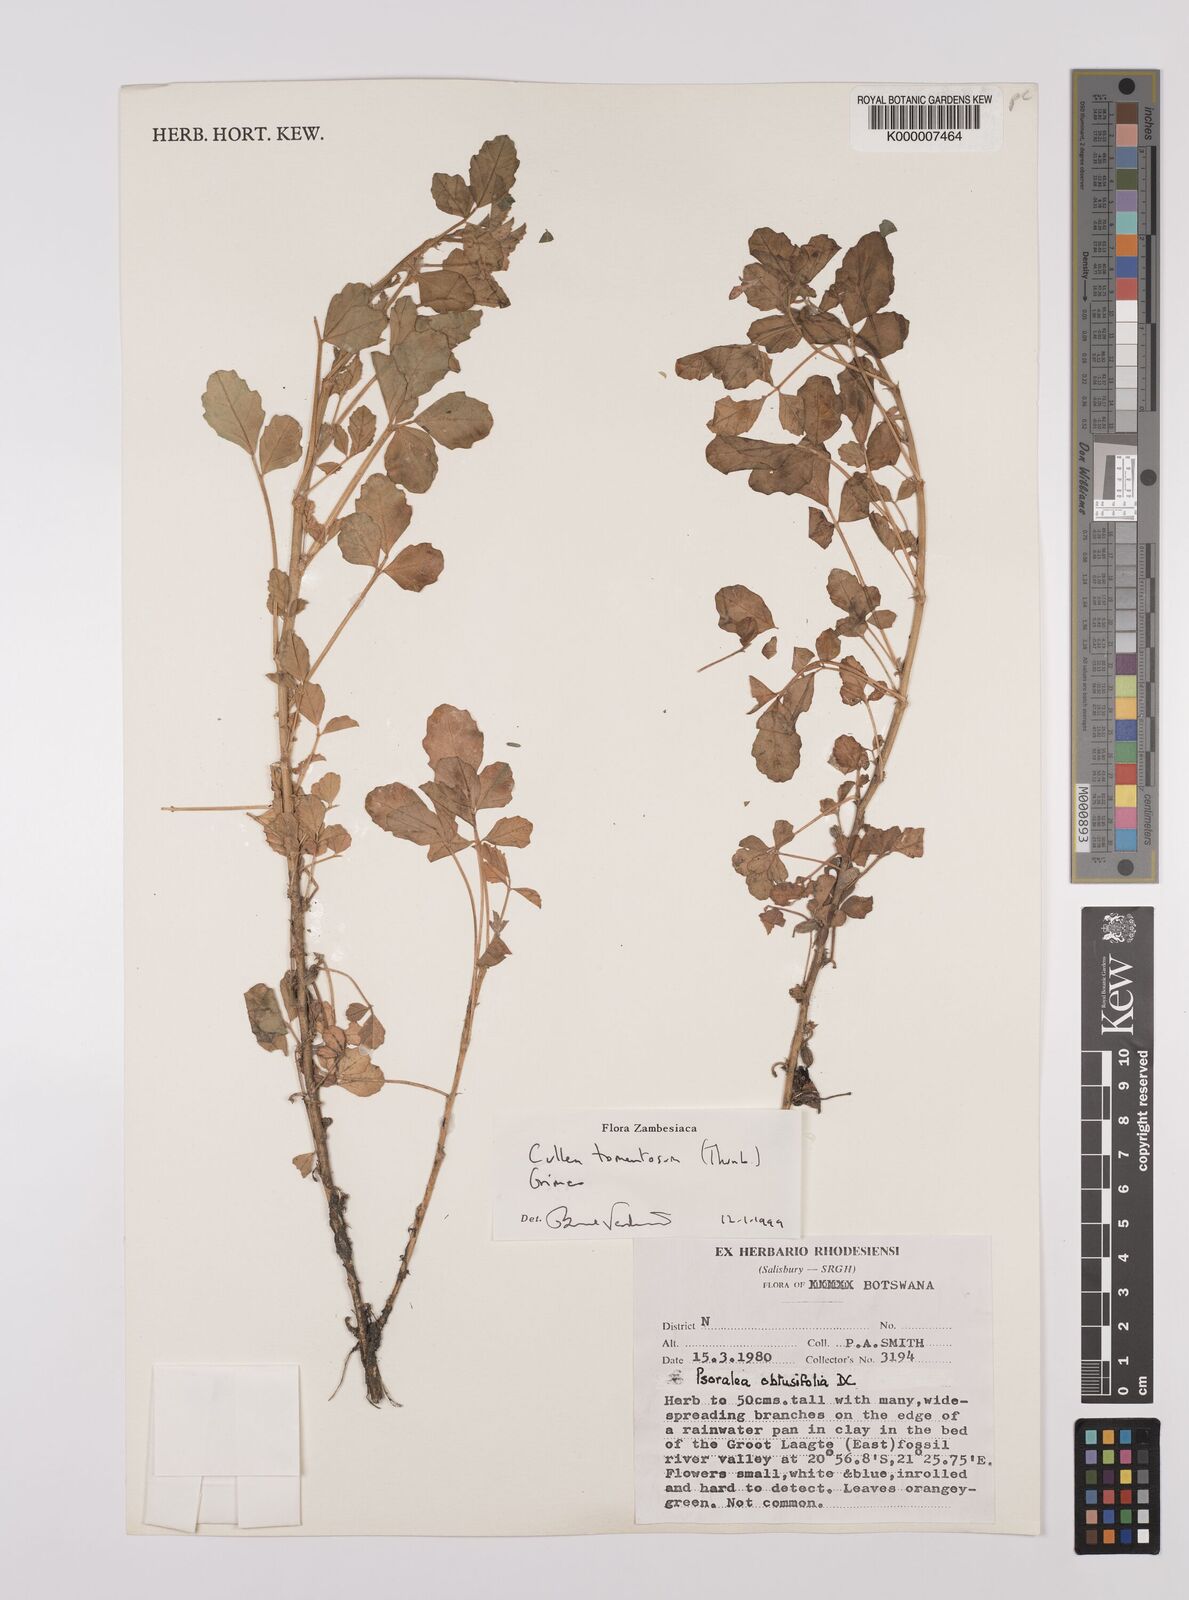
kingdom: Plantae
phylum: Tracheophyta
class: Magnoliopsida
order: Fabales
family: Fabaceae
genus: Cullen
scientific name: Cullen tomentosum
